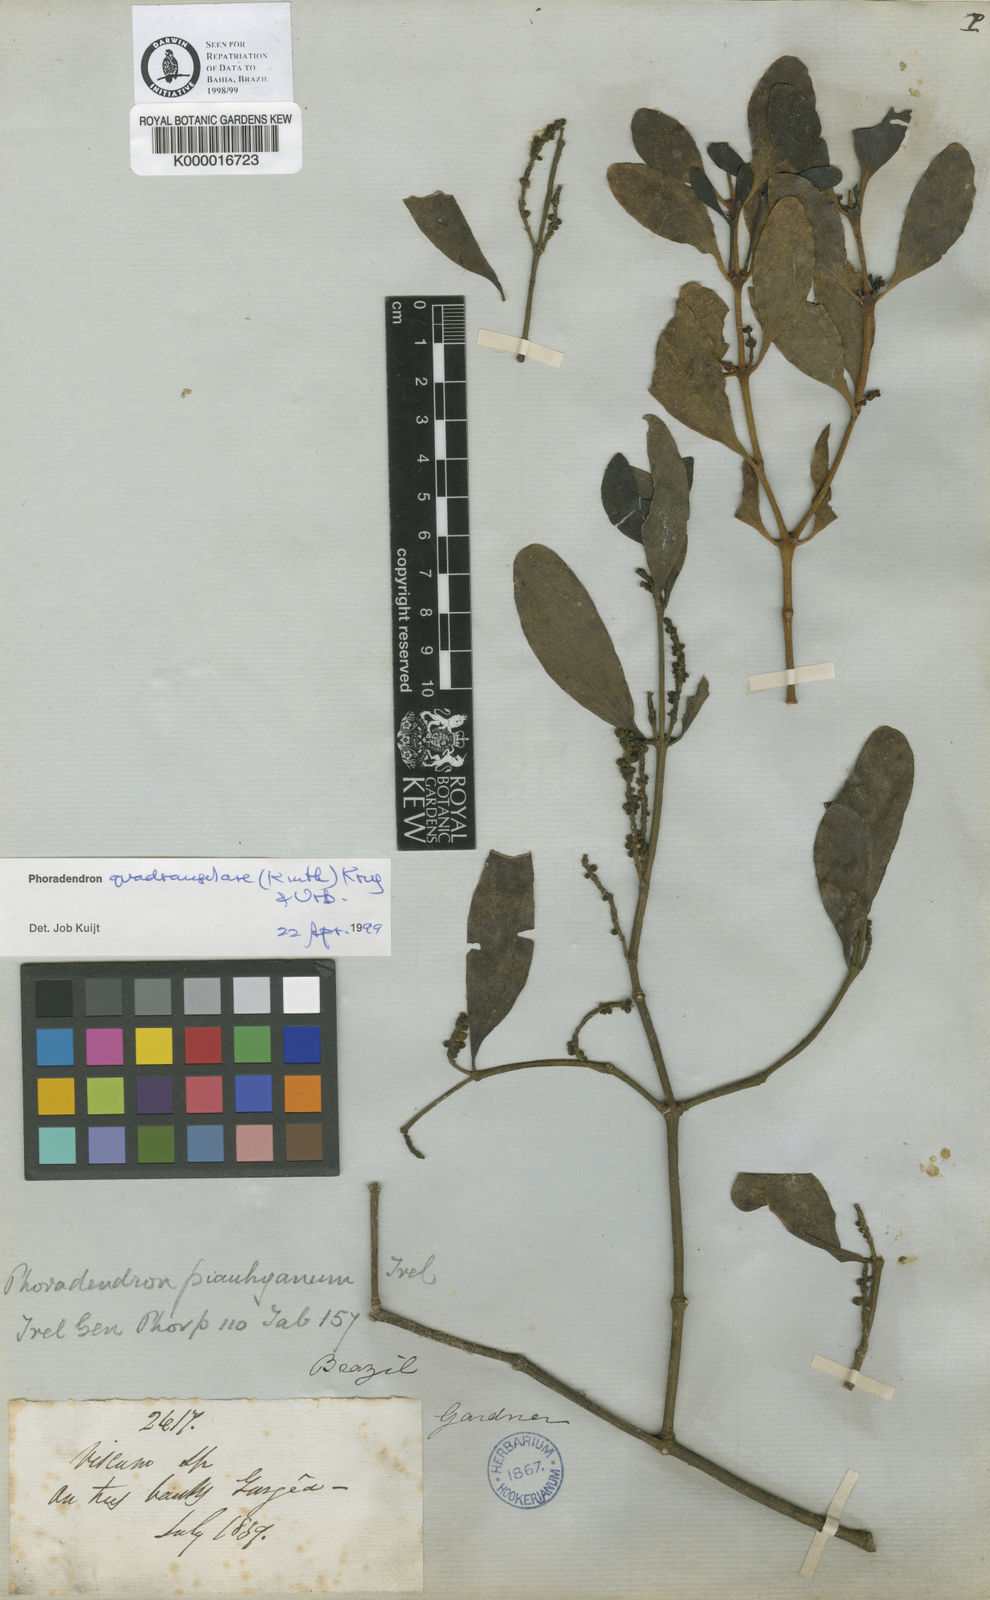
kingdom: Plantae
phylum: Tracheophyta
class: Magnoliopsida
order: Santalales
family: Viscaceae
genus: Phoradendron
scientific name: Phoradendron quadrangulare
